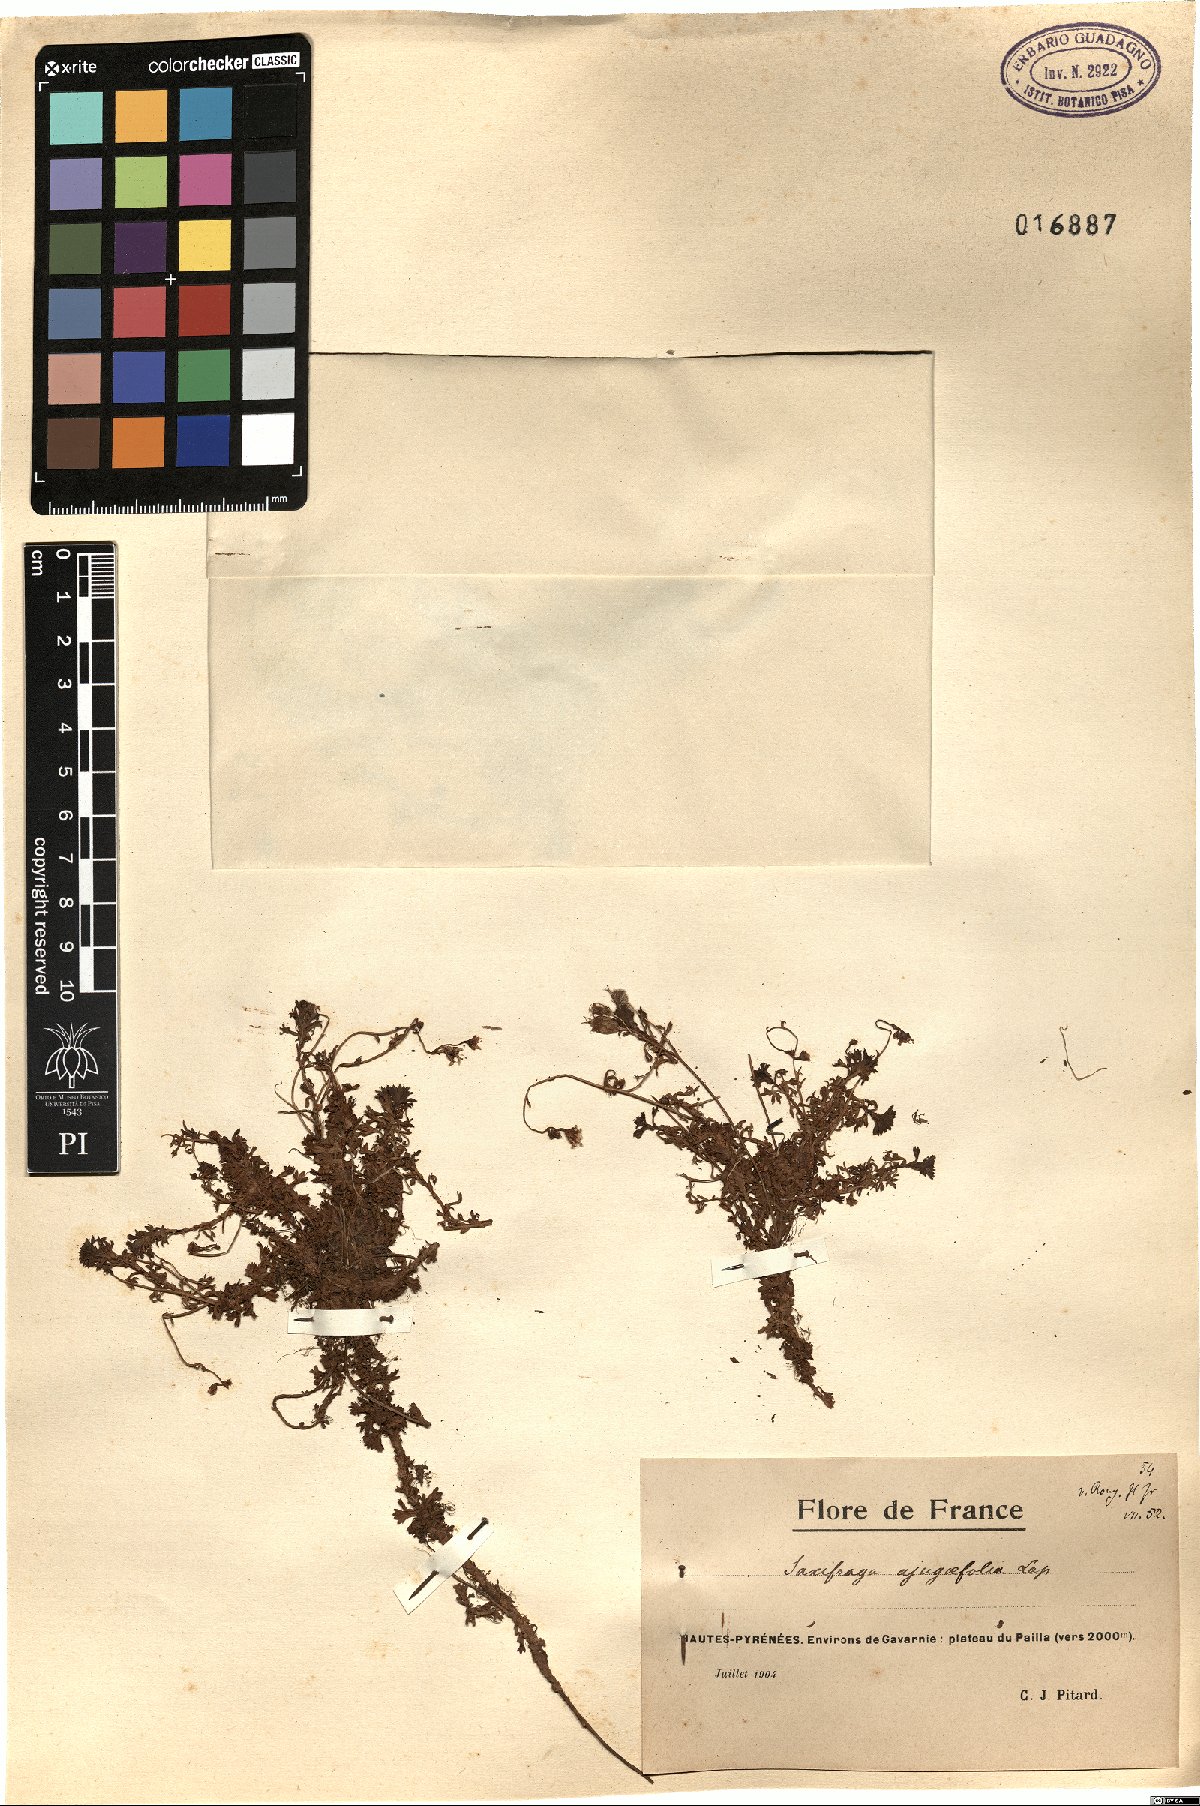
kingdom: Plantae
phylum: Tracheophyta
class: Magnoliopsida
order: Saxifragales
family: Saxifragaceae
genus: Saxifraga
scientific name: Saxifraga pedemontana
